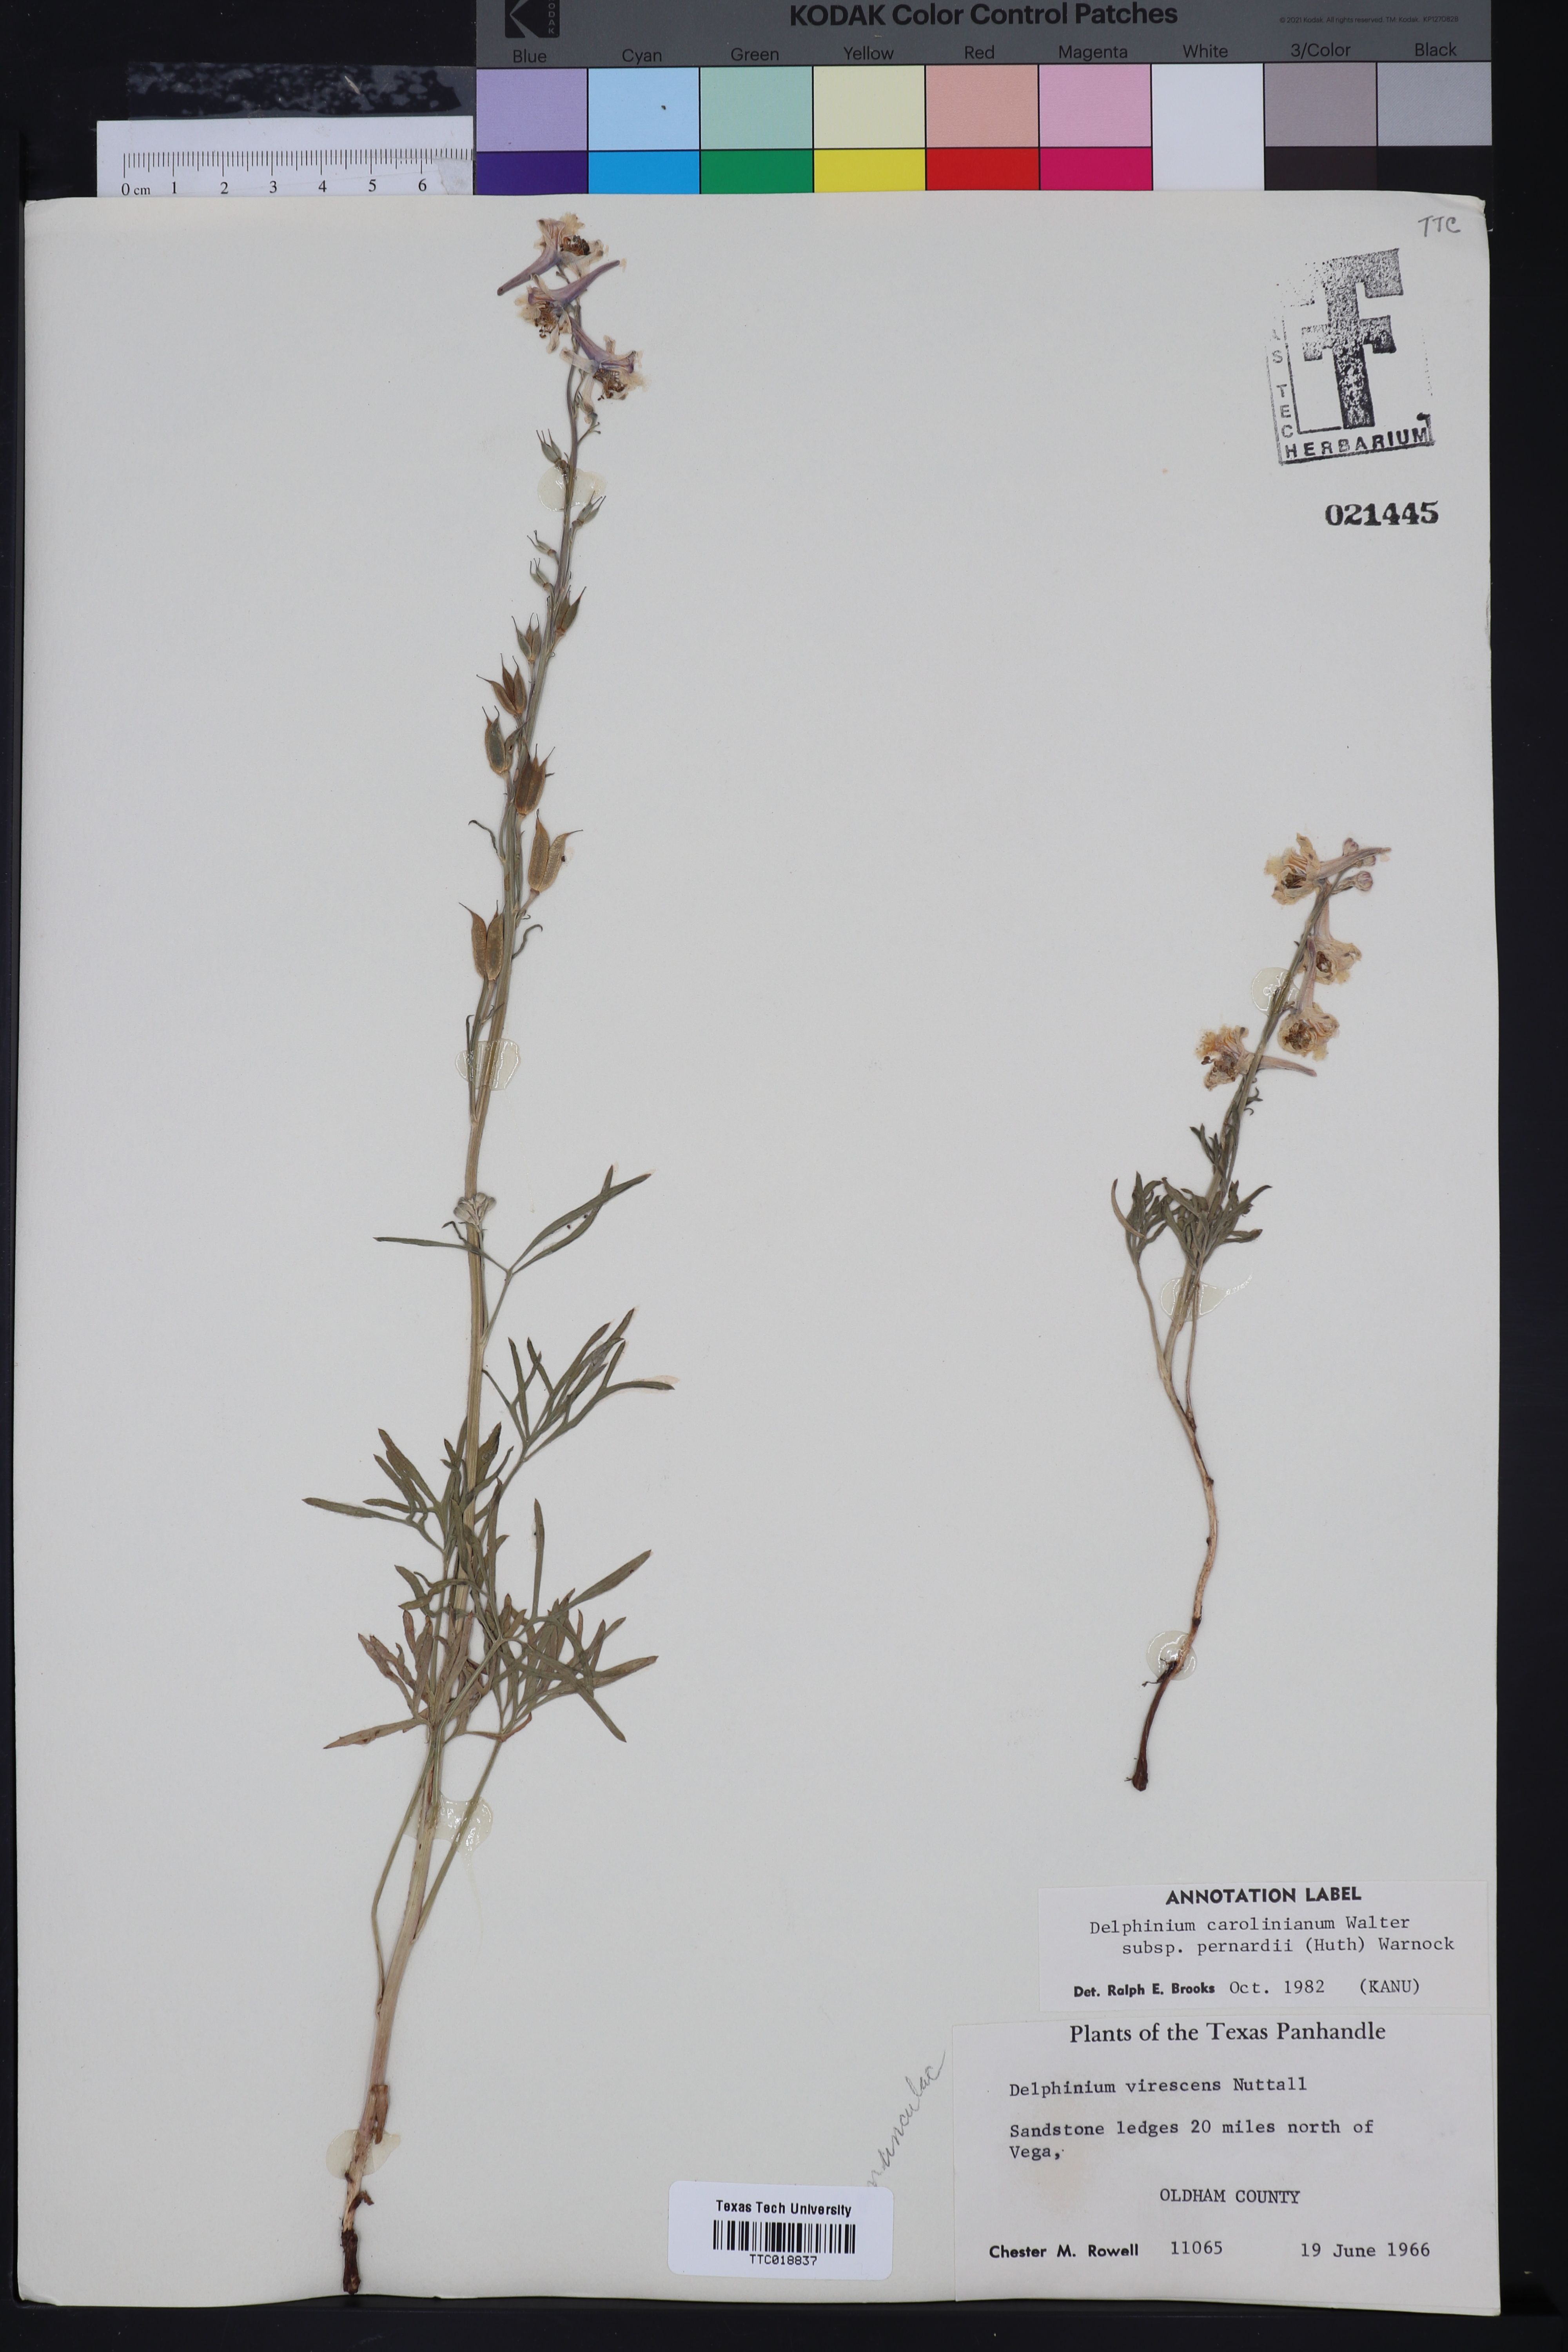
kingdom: Plantae
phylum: Tracheophyta
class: Magnoliopsida
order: Ranunculales
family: Ranunculaceae
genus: Delphinium
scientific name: Delphinium carolinianum
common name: Carolina larkspur
